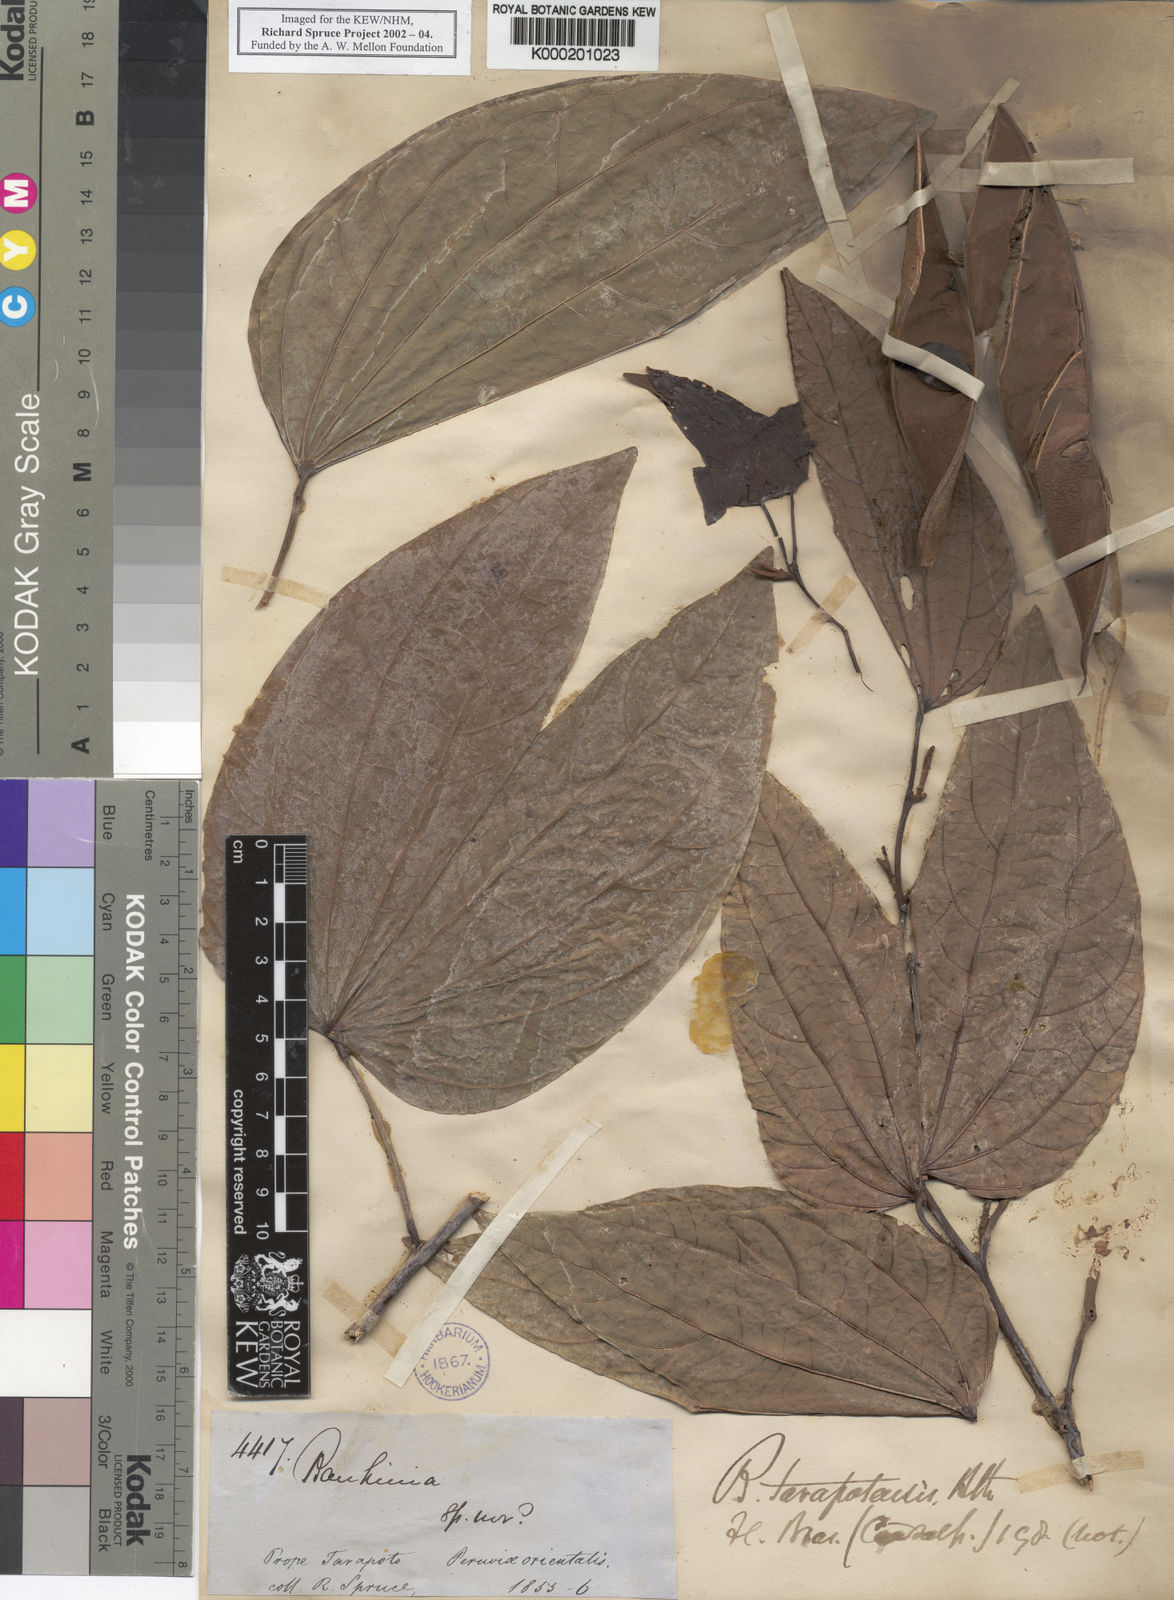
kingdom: Plantae
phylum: Tracheophyta
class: Magnoliopsida
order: Fabales
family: Fabaceae
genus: Bauhinia
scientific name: Bauhinia tarapotensis
